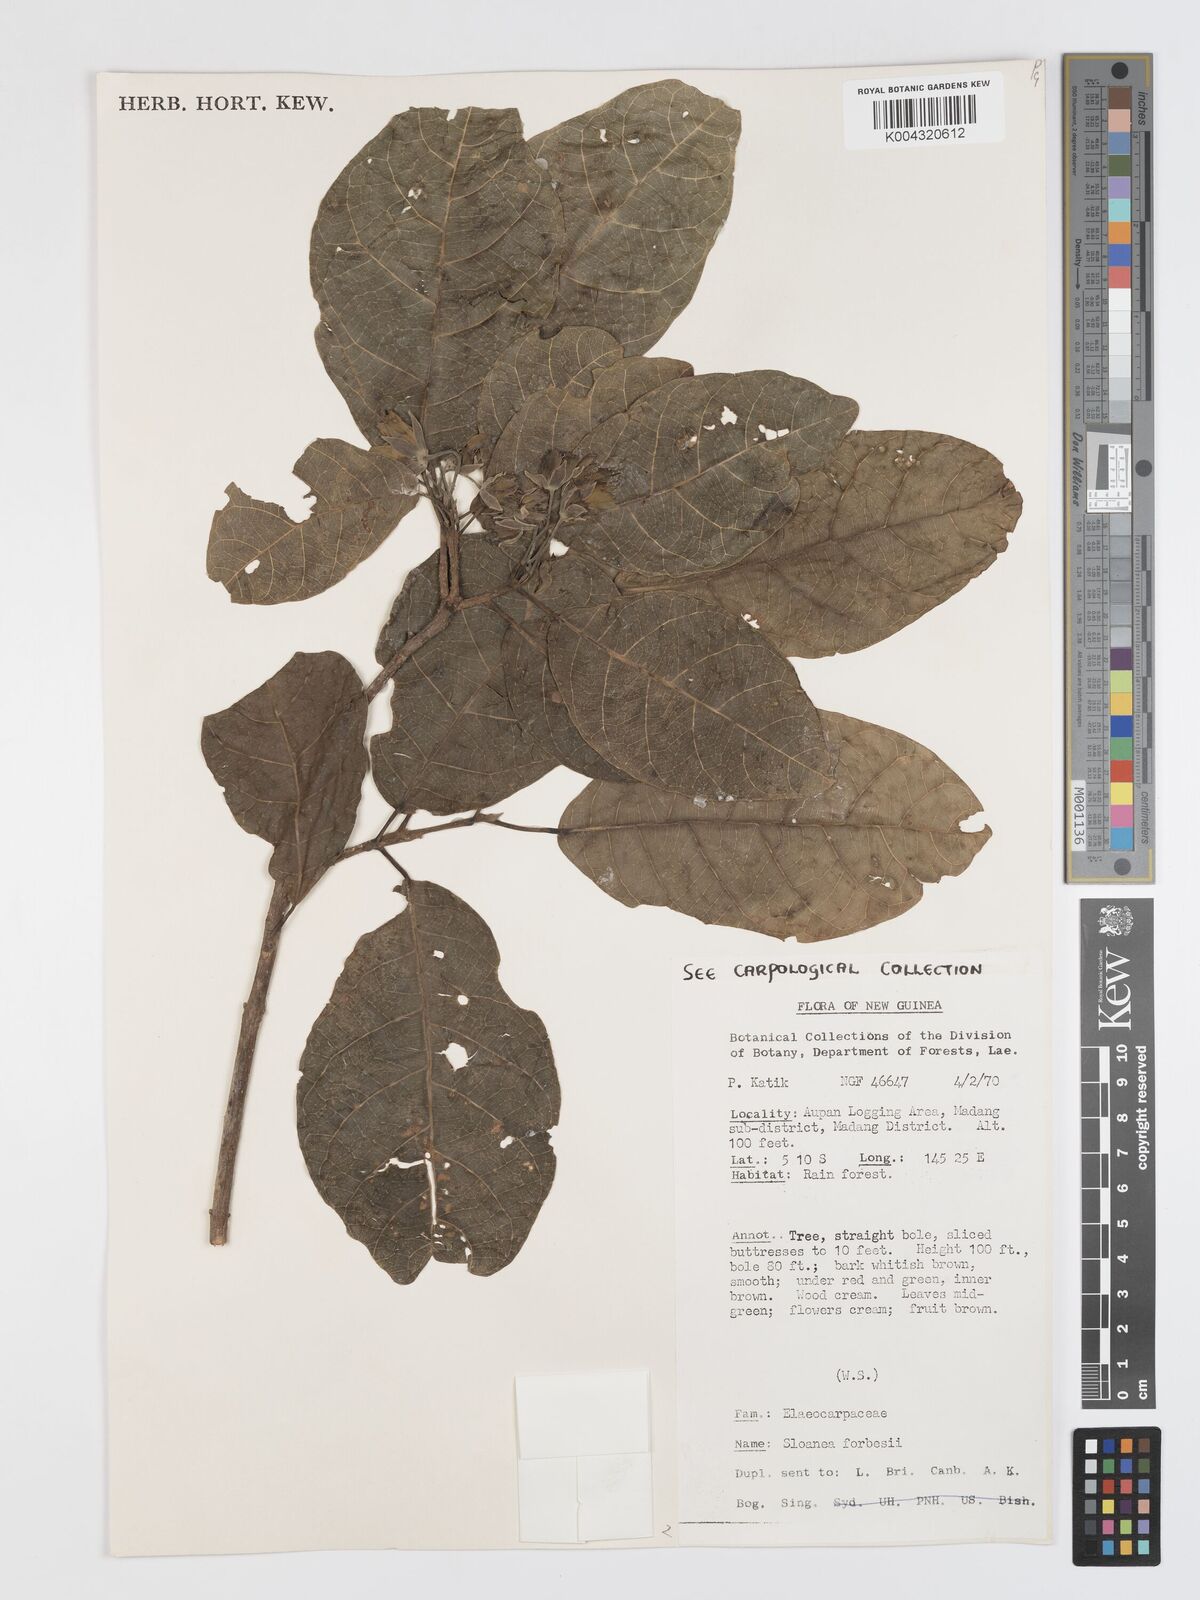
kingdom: Plantae
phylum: Tracheophyta
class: Magnoliopsida
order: Oxalidales
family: Elaeocarpaceae
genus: Sloanea
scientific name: Sloanea forbesii
